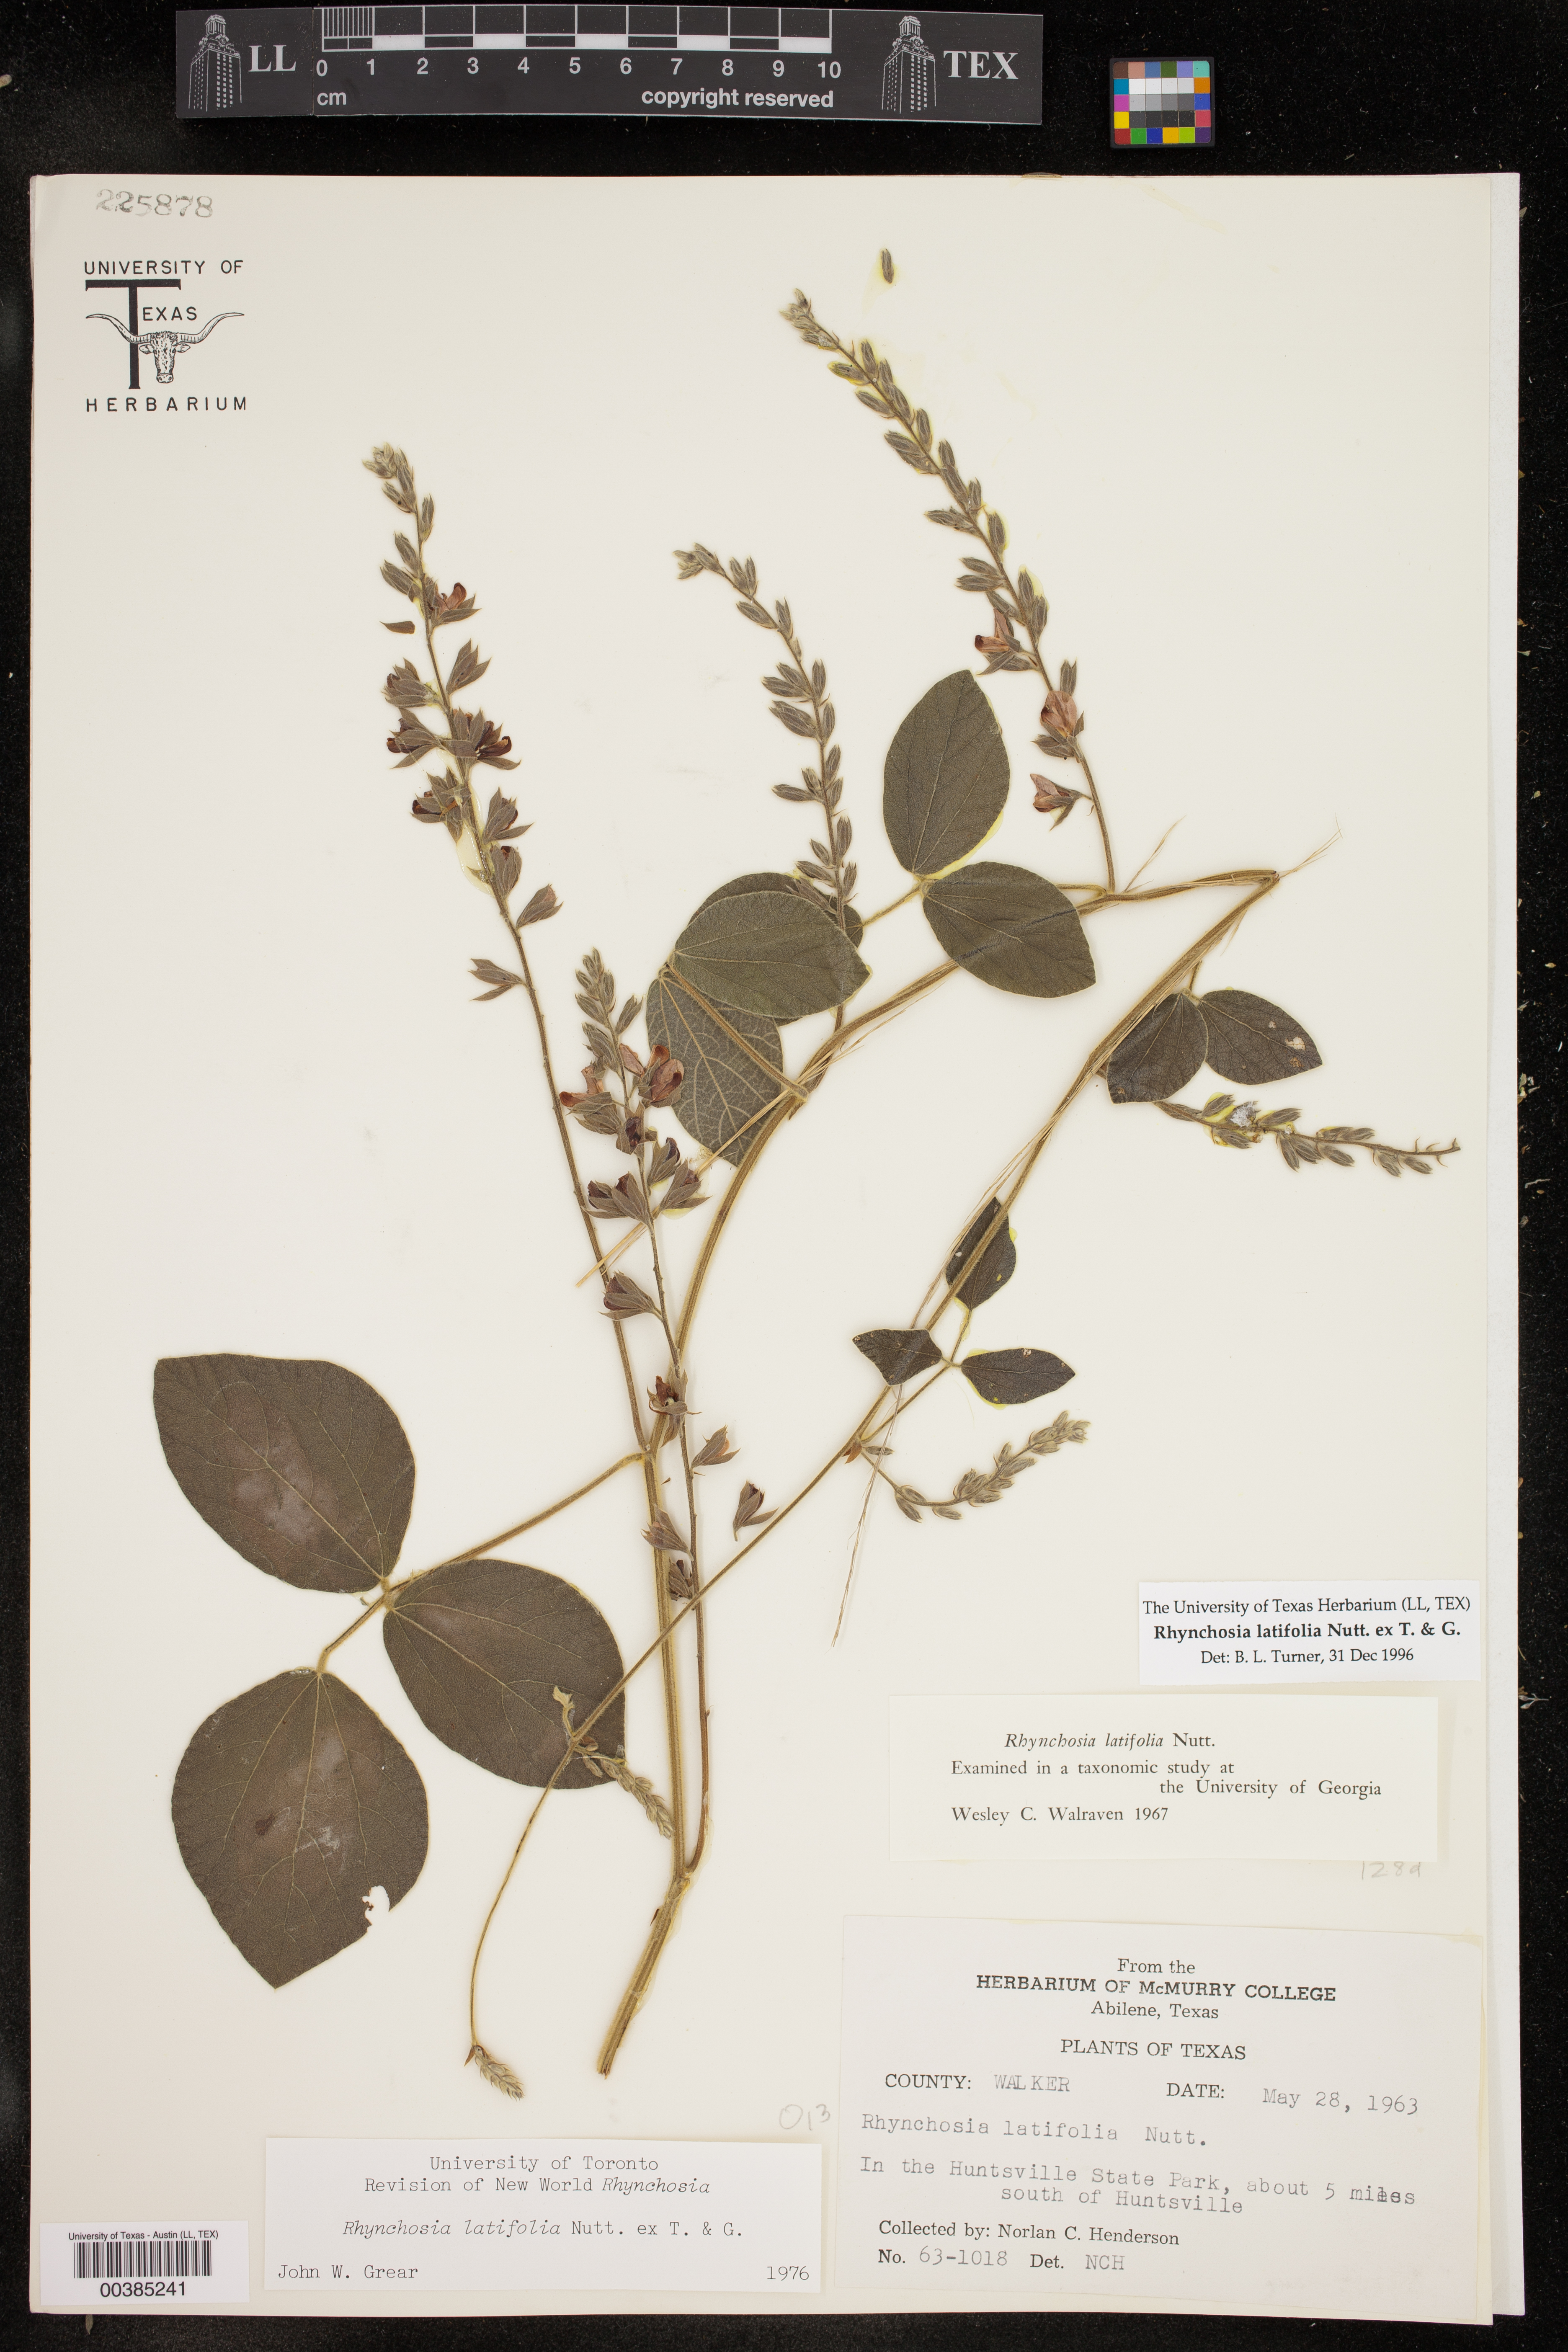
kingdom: Plantae
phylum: Tracheophyta
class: Magnoliopsida
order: Fabales
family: Fabaceae
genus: Rhynchosia
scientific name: Rhynchosia latifolia
